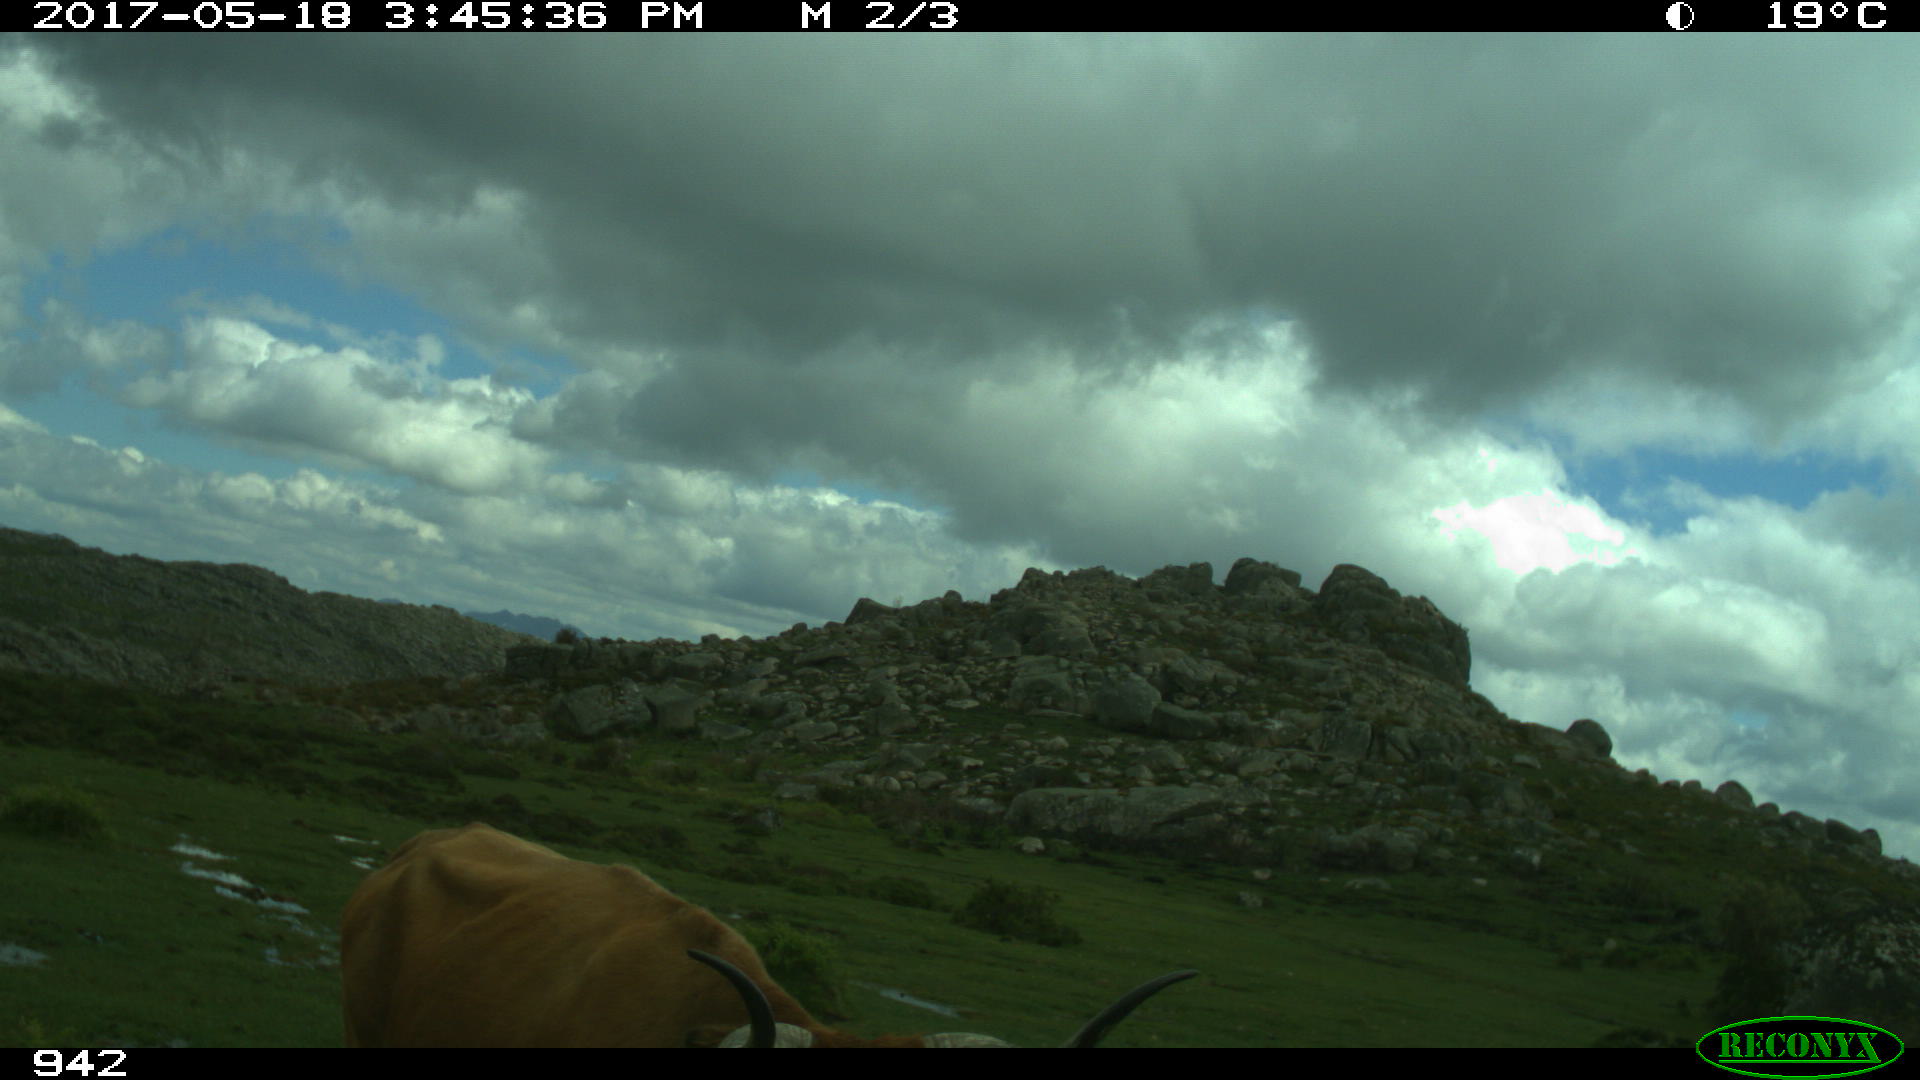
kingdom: Animalia
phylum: Chordata
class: Mammalia
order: Artiodactyla
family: Bovidae
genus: Bos
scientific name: Bos taurus
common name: Domesticated cattle
